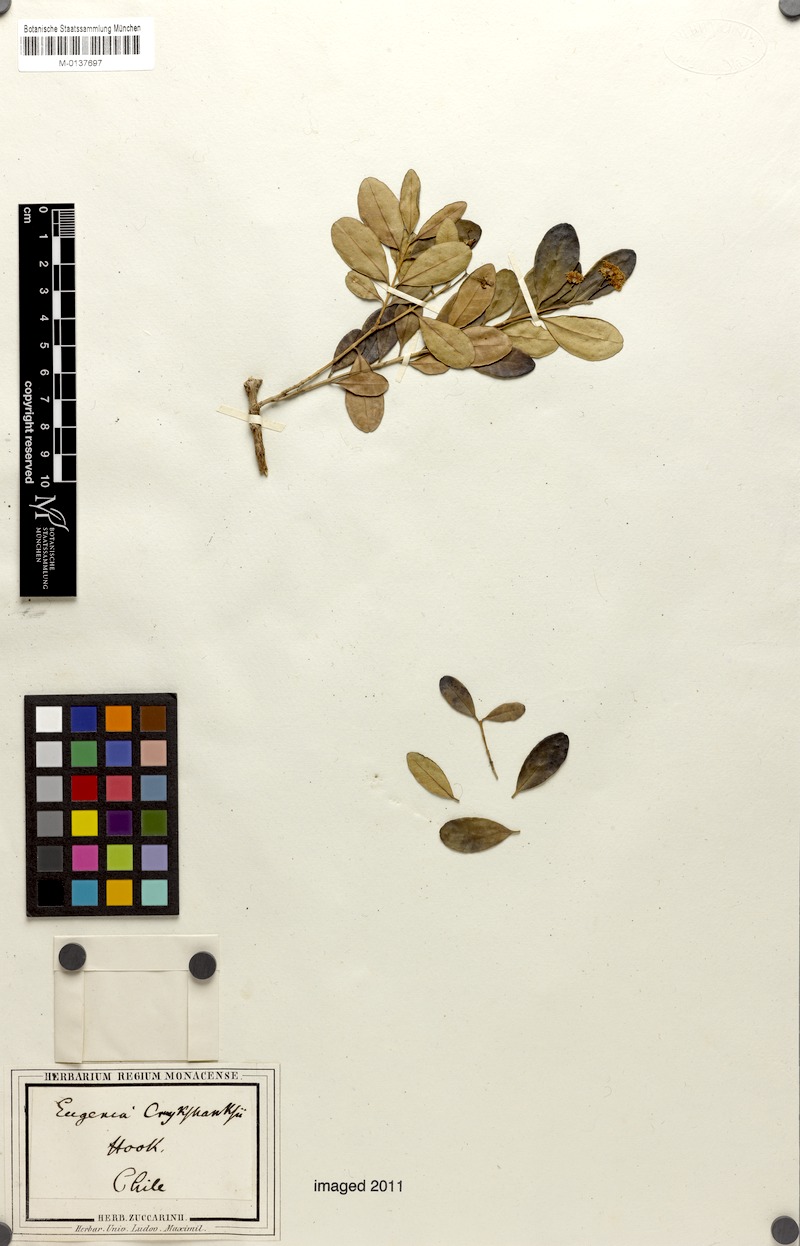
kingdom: Plantae
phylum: Tracheophyta
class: Magnoliopsida
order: Myrtales
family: Myrtaceae
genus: Blepharocalyx
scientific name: Blepharocalyx cruckshanksii
